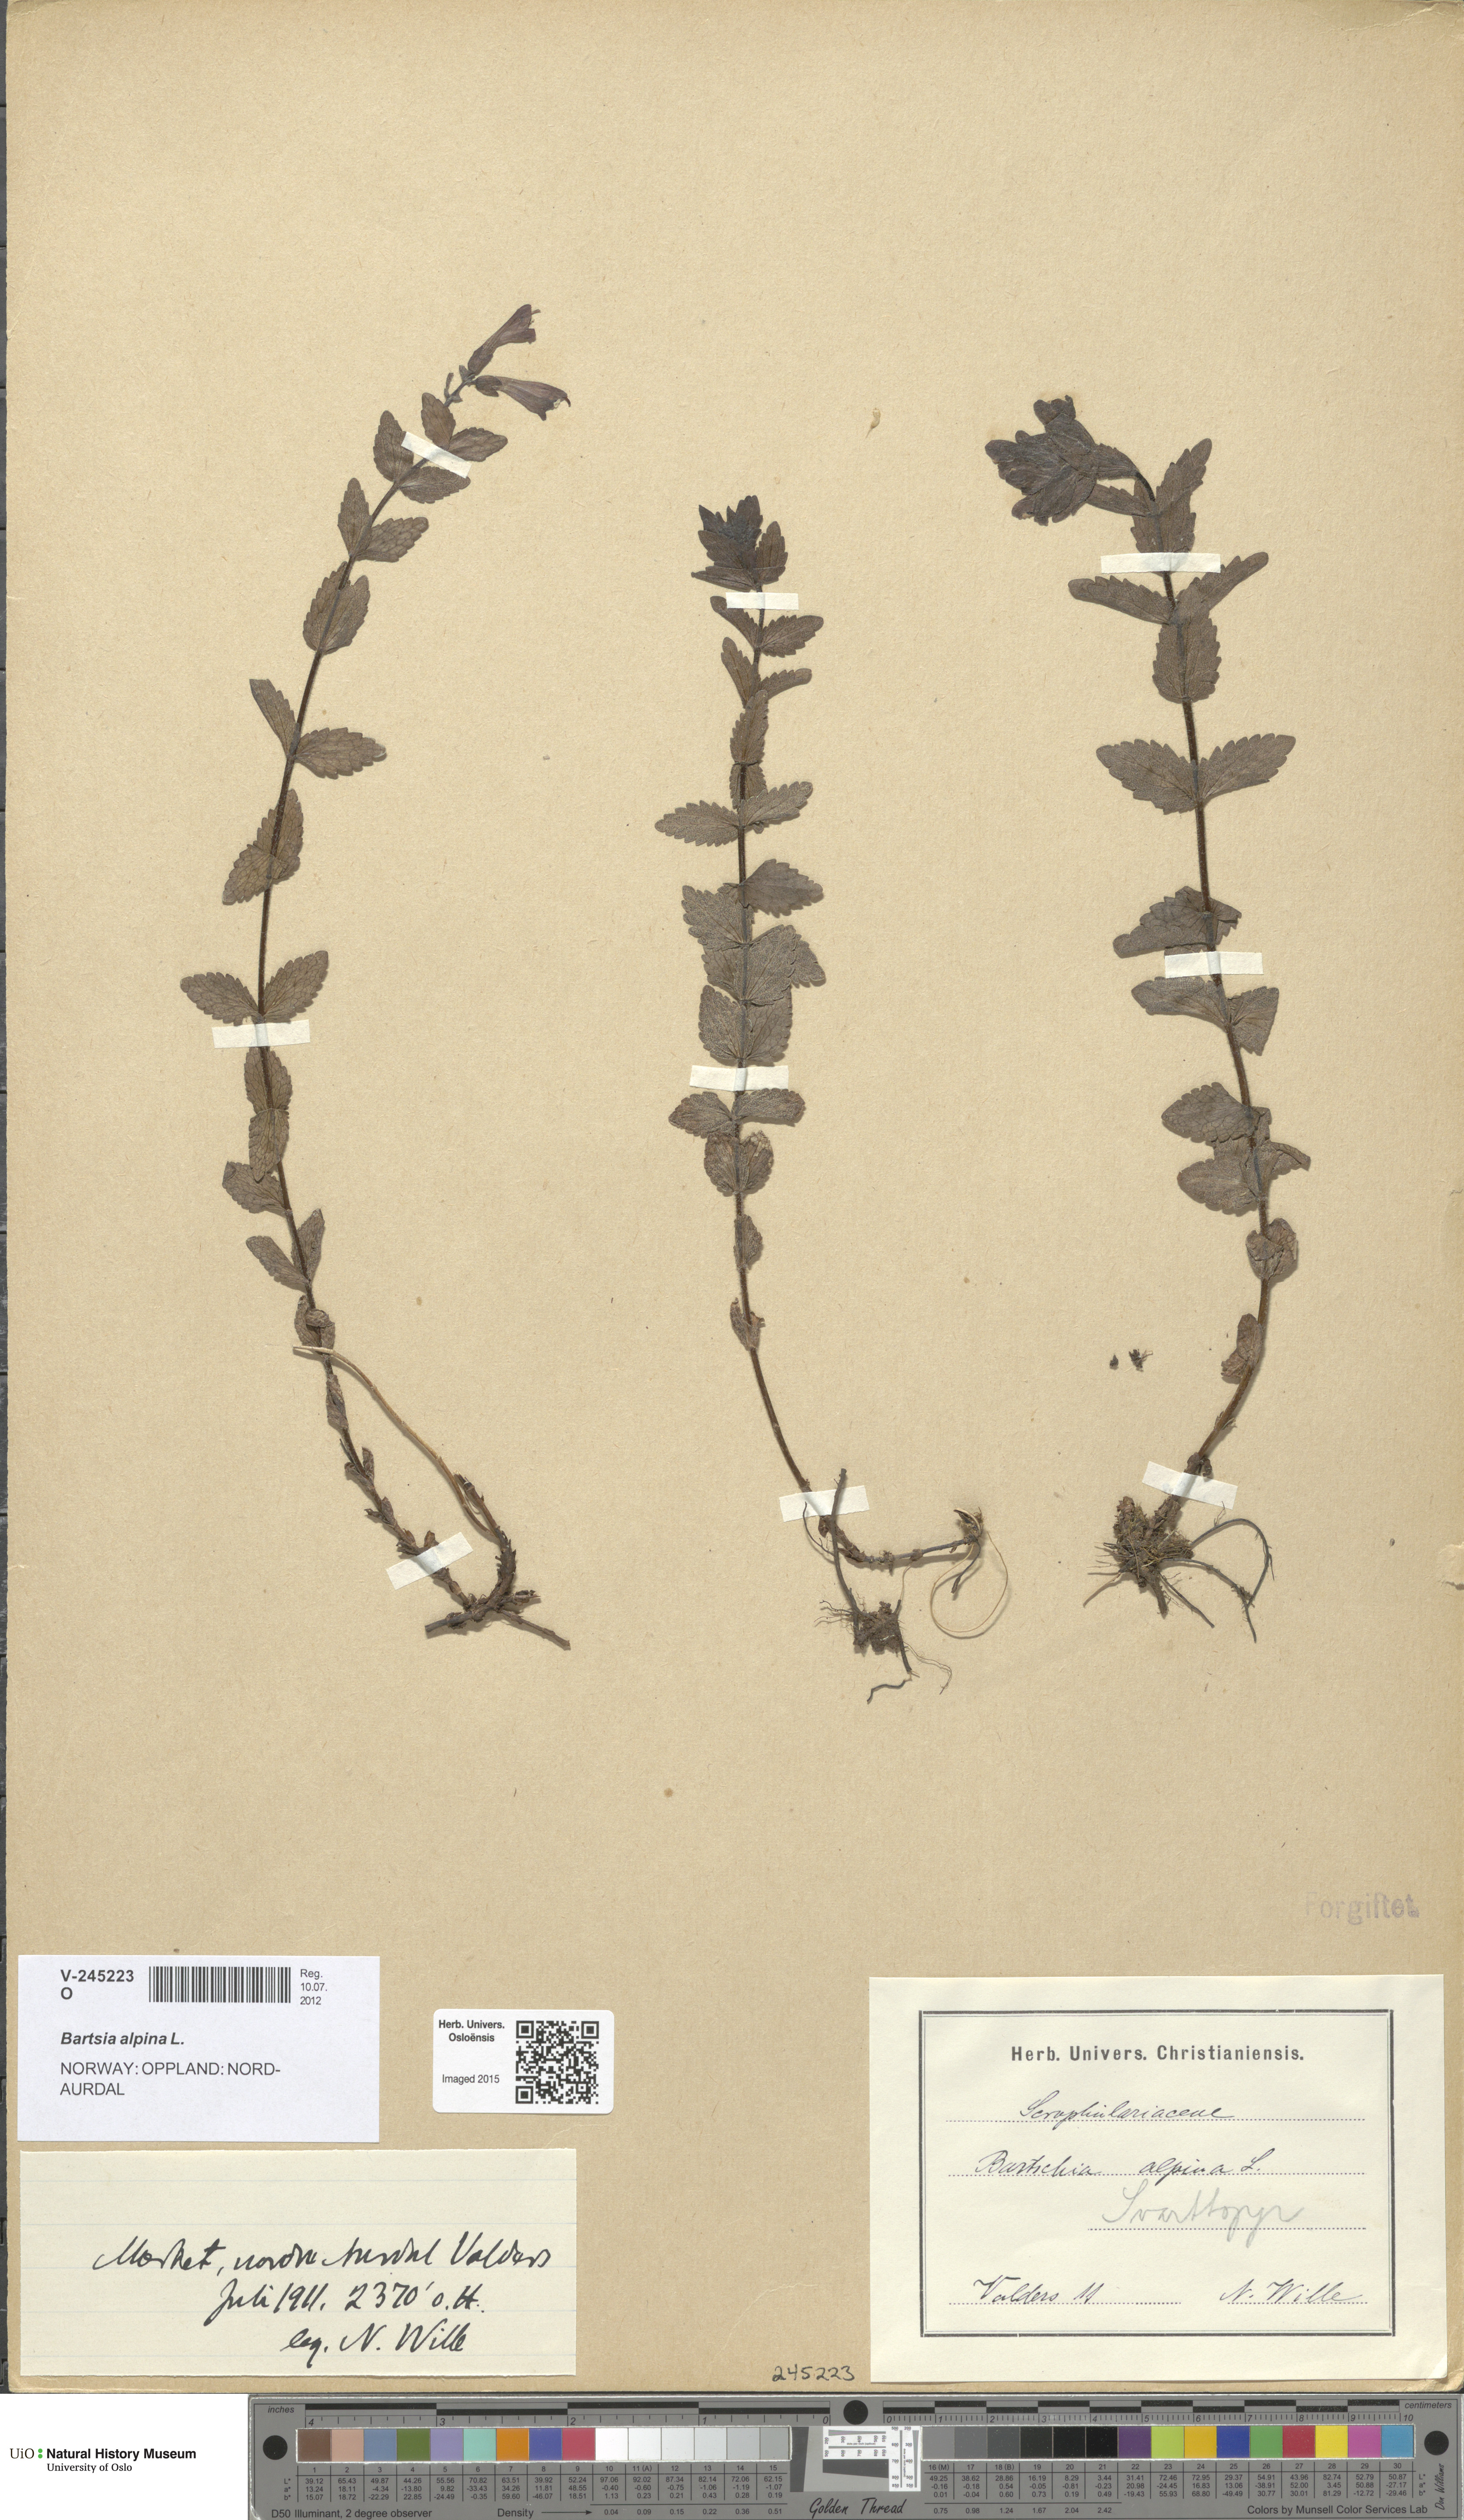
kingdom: Plantae
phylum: Tracheophyta
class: Magnoliopsida
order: Lamiales
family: Orobanchaceae
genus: Bartsia
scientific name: Bartsia alpina
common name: Alpine bartsia
